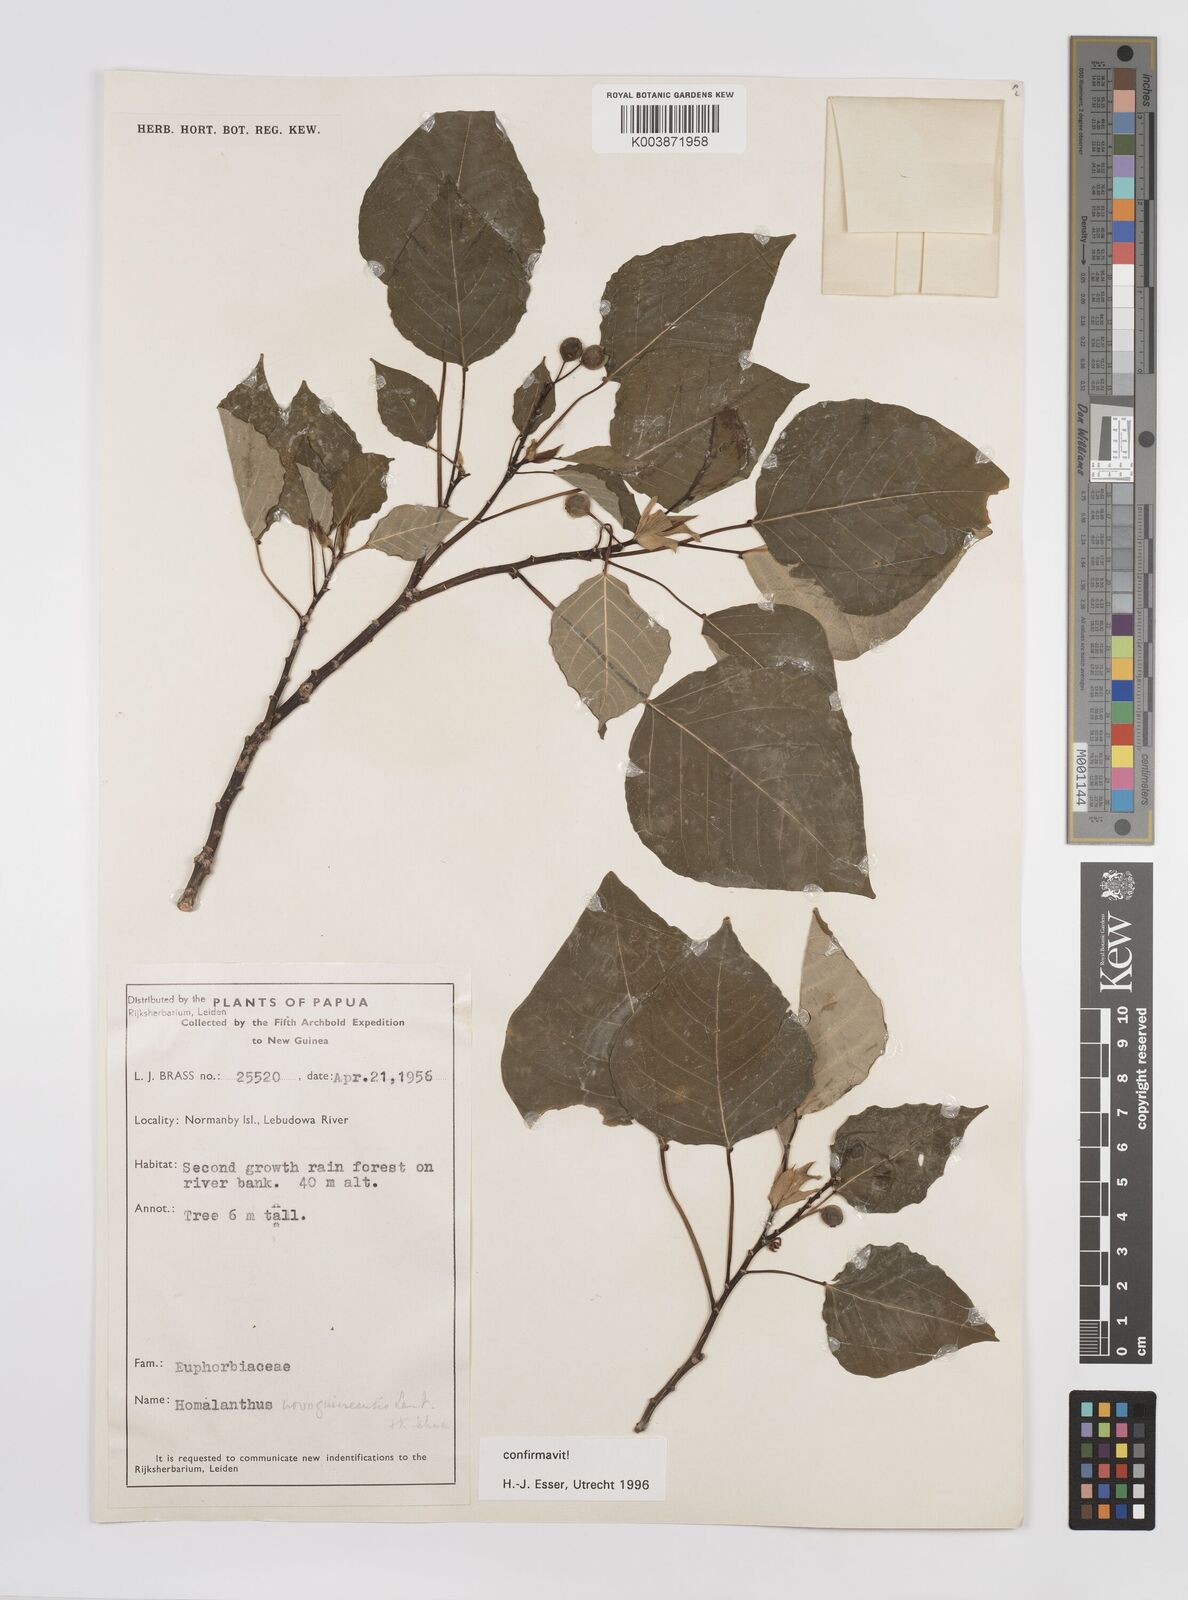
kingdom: Plantae
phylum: Tracheophyta
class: Magnoliopsida
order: Malpighiales
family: Euphorbiaceae
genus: Homalanthus
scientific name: Homalanthus novoguineensis
